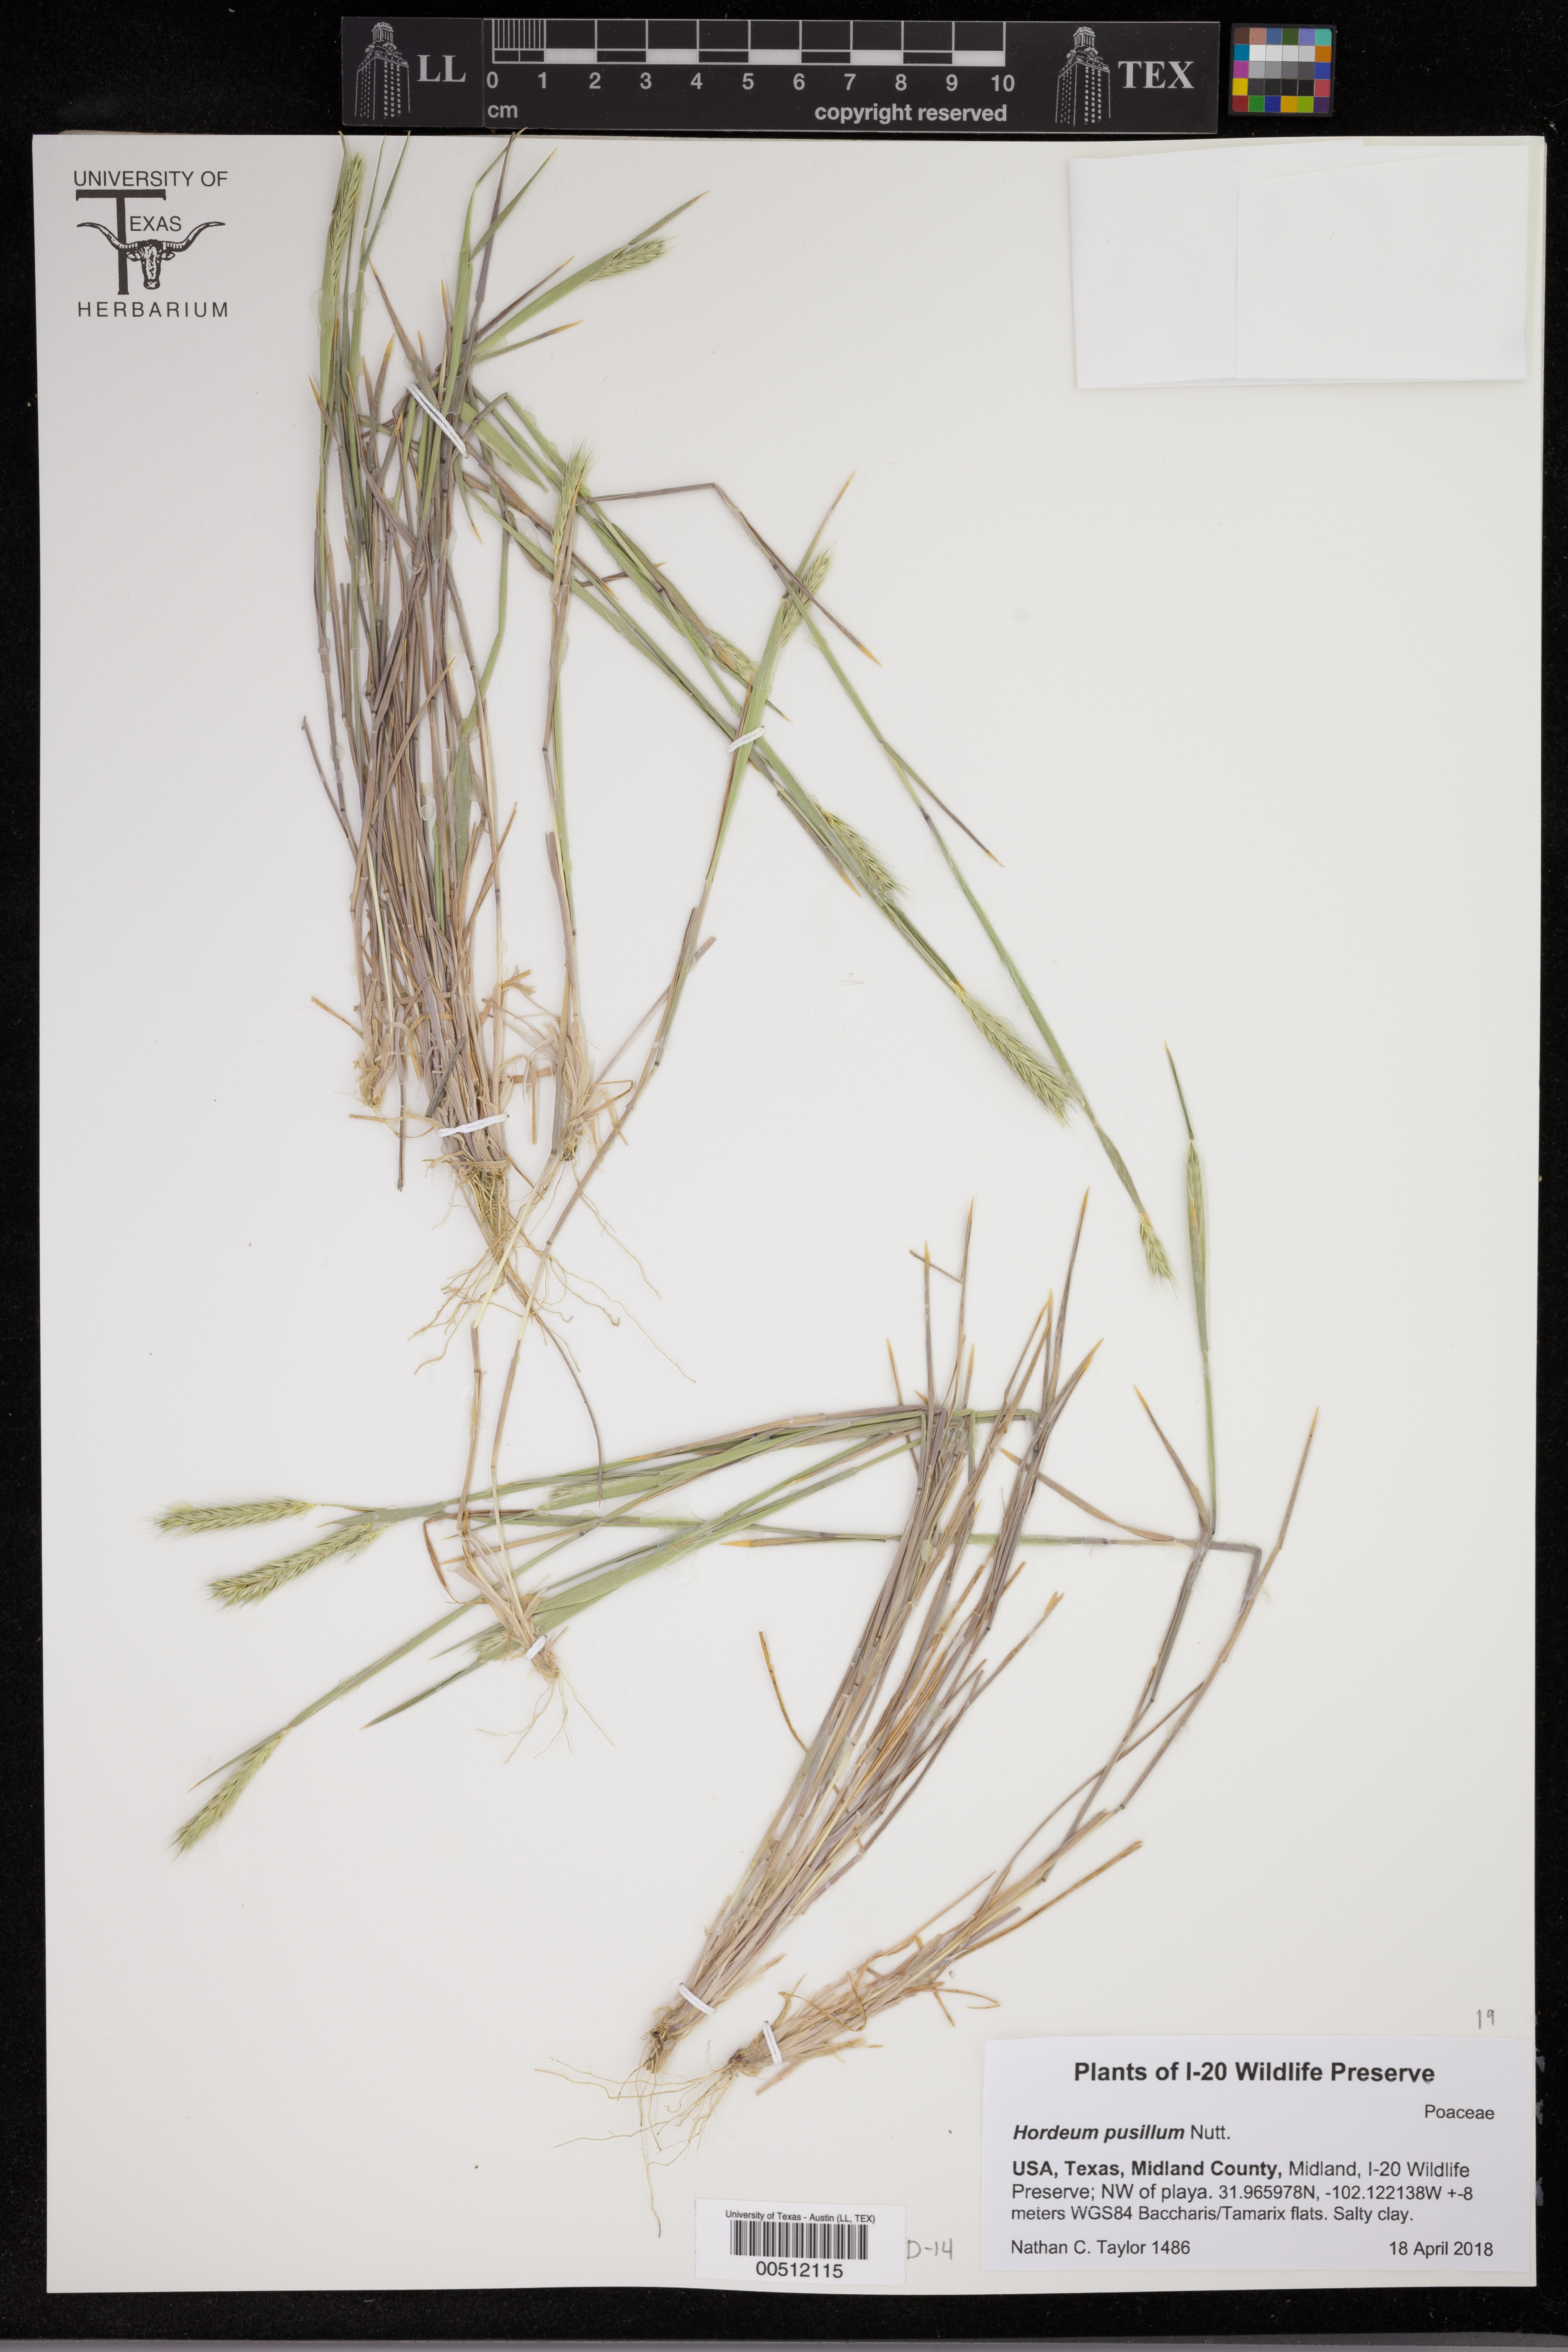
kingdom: Plantae
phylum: Tracheophyta
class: Liliopsida
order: Poales
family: Poaceae
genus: Hordeum
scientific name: Hordeum pusillum
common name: Little barley
